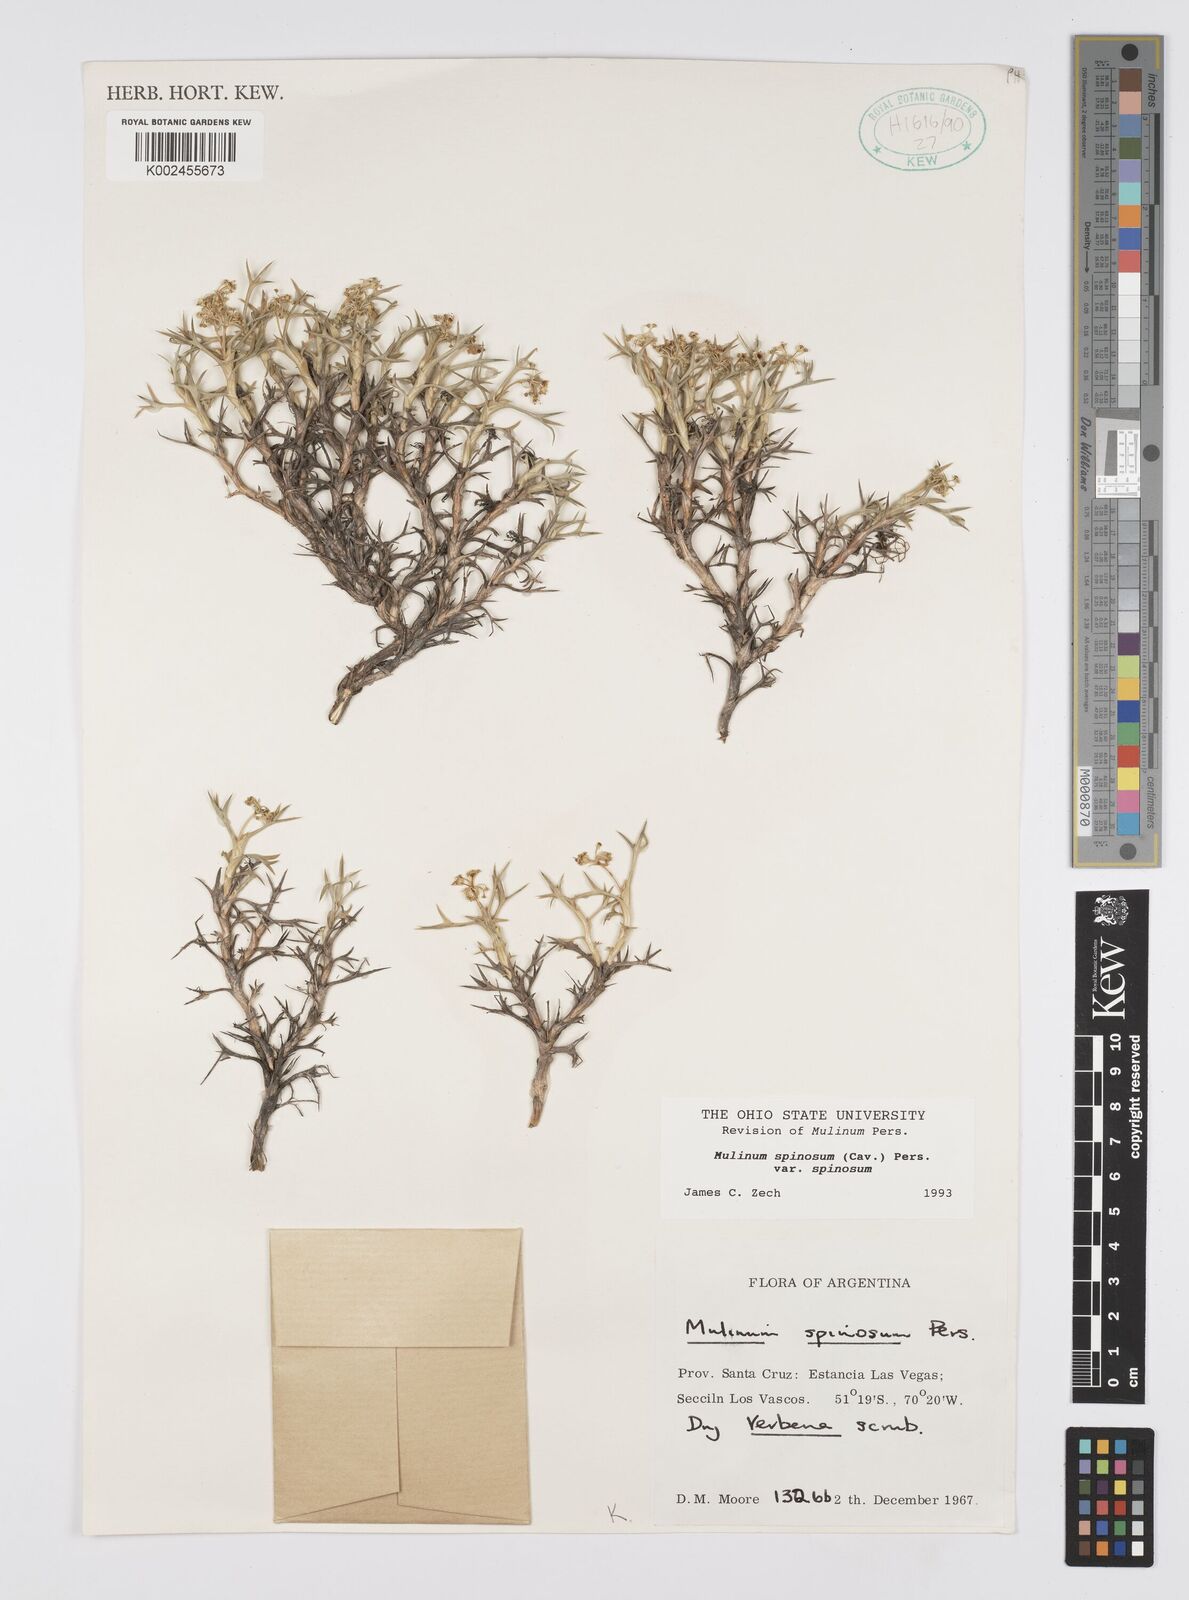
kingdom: Plantae
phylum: Tracheophyta
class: Magnoliopsida
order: Apiales
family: Apiaceae
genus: Azorella
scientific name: Azorella prolifera
